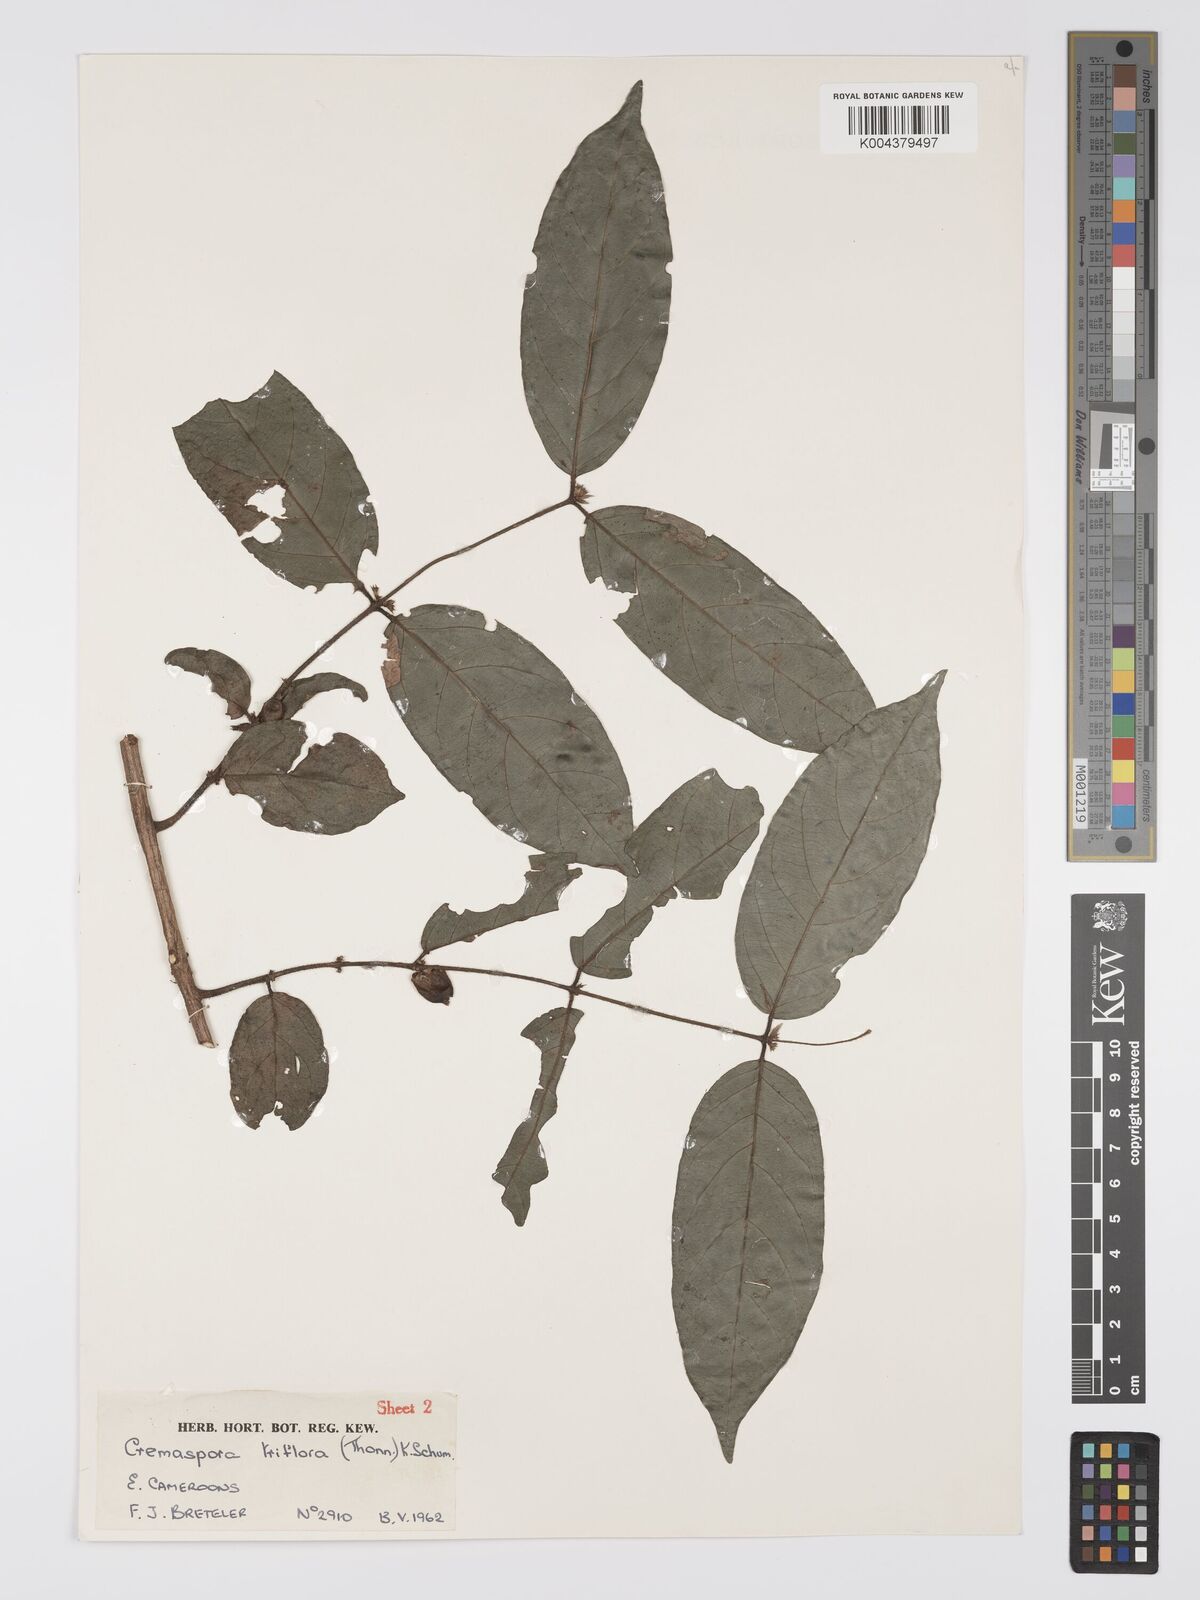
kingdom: Plantae
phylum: Tracheophyta
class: Magnoliopsida
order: Gentianales
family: Rubiaceae
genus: Cremaspora
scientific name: Cremaspora triflora
